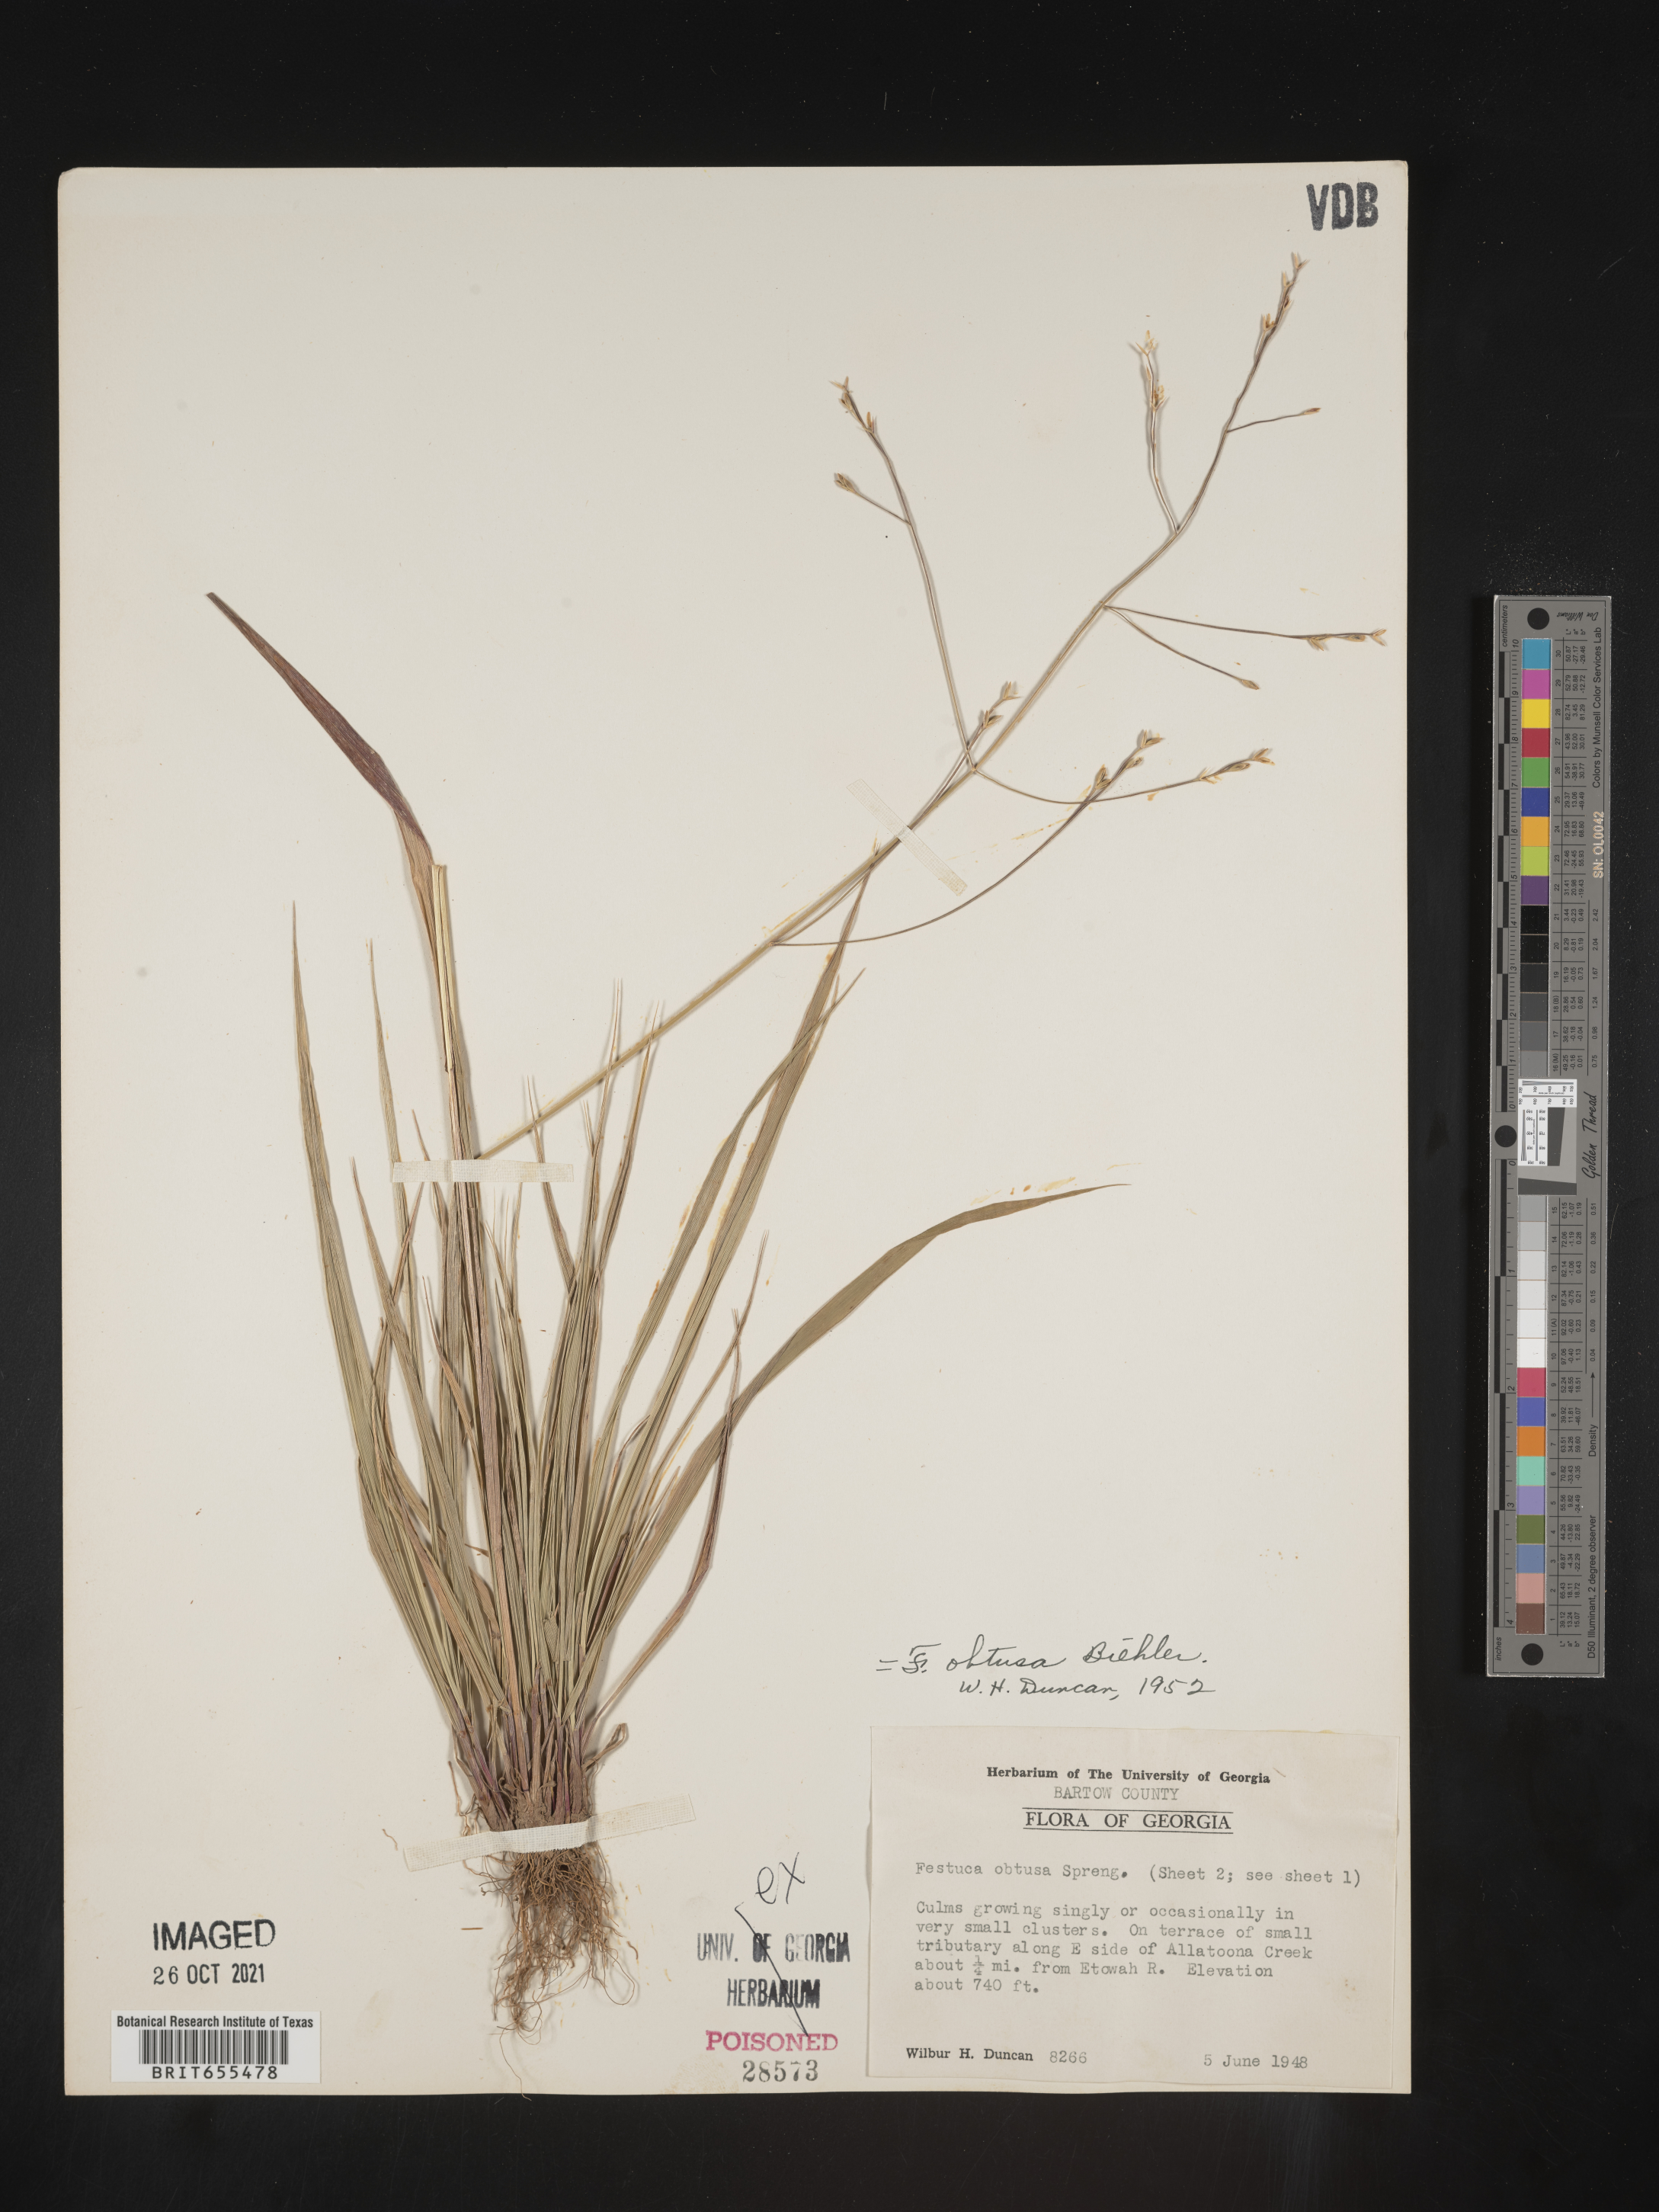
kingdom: Plantae
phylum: Tracheophyta
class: Liliopsida
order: Poales
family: Poaceae
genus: Festuca
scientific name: Festuca
